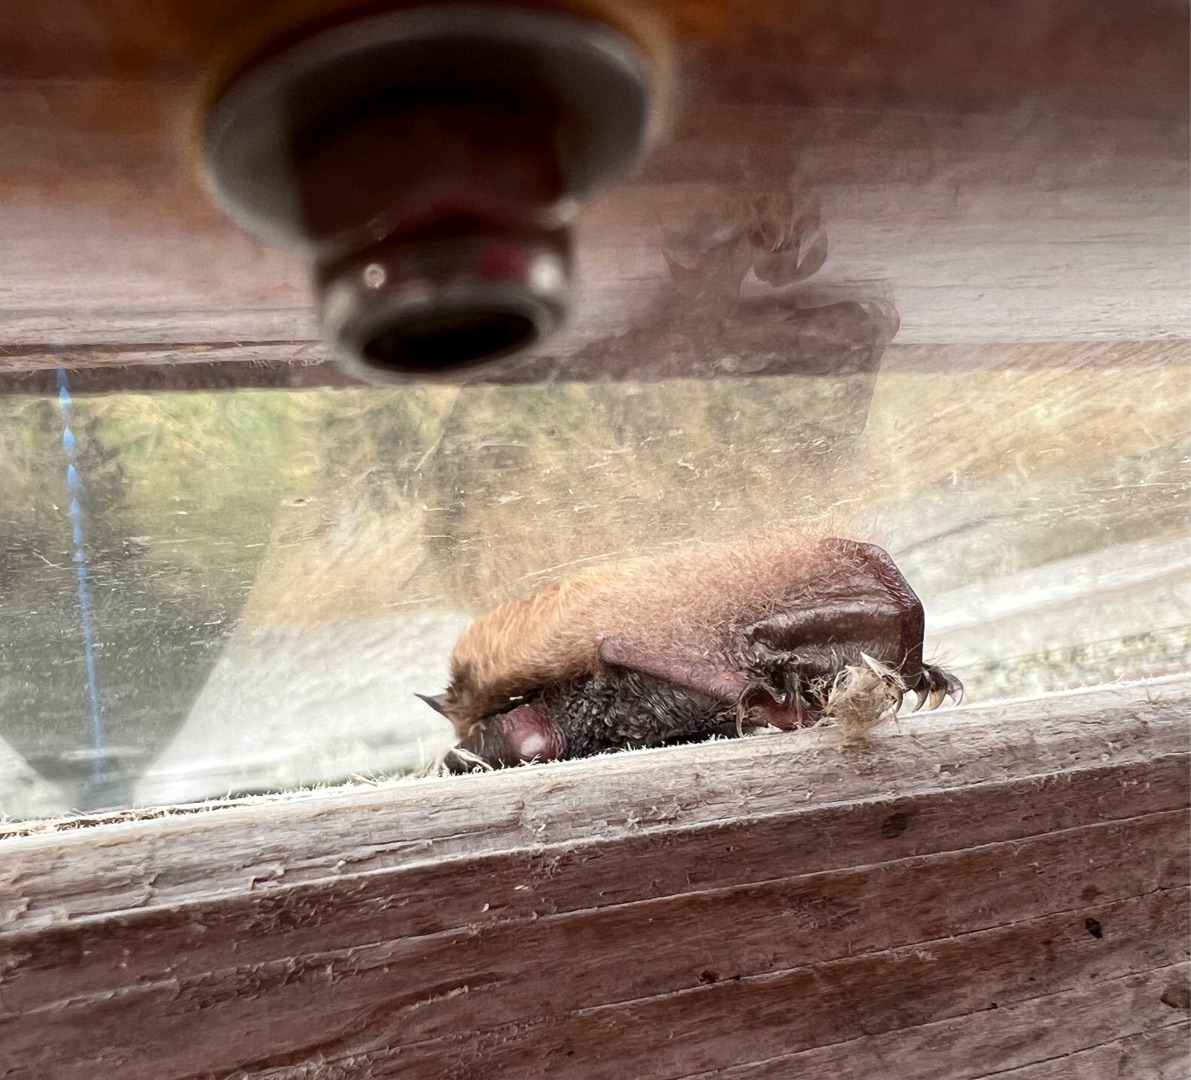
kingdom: Animalia
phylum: Chordata
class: Mammalia
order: Chiroptera
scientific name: Chiroptera
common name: Flagermus
